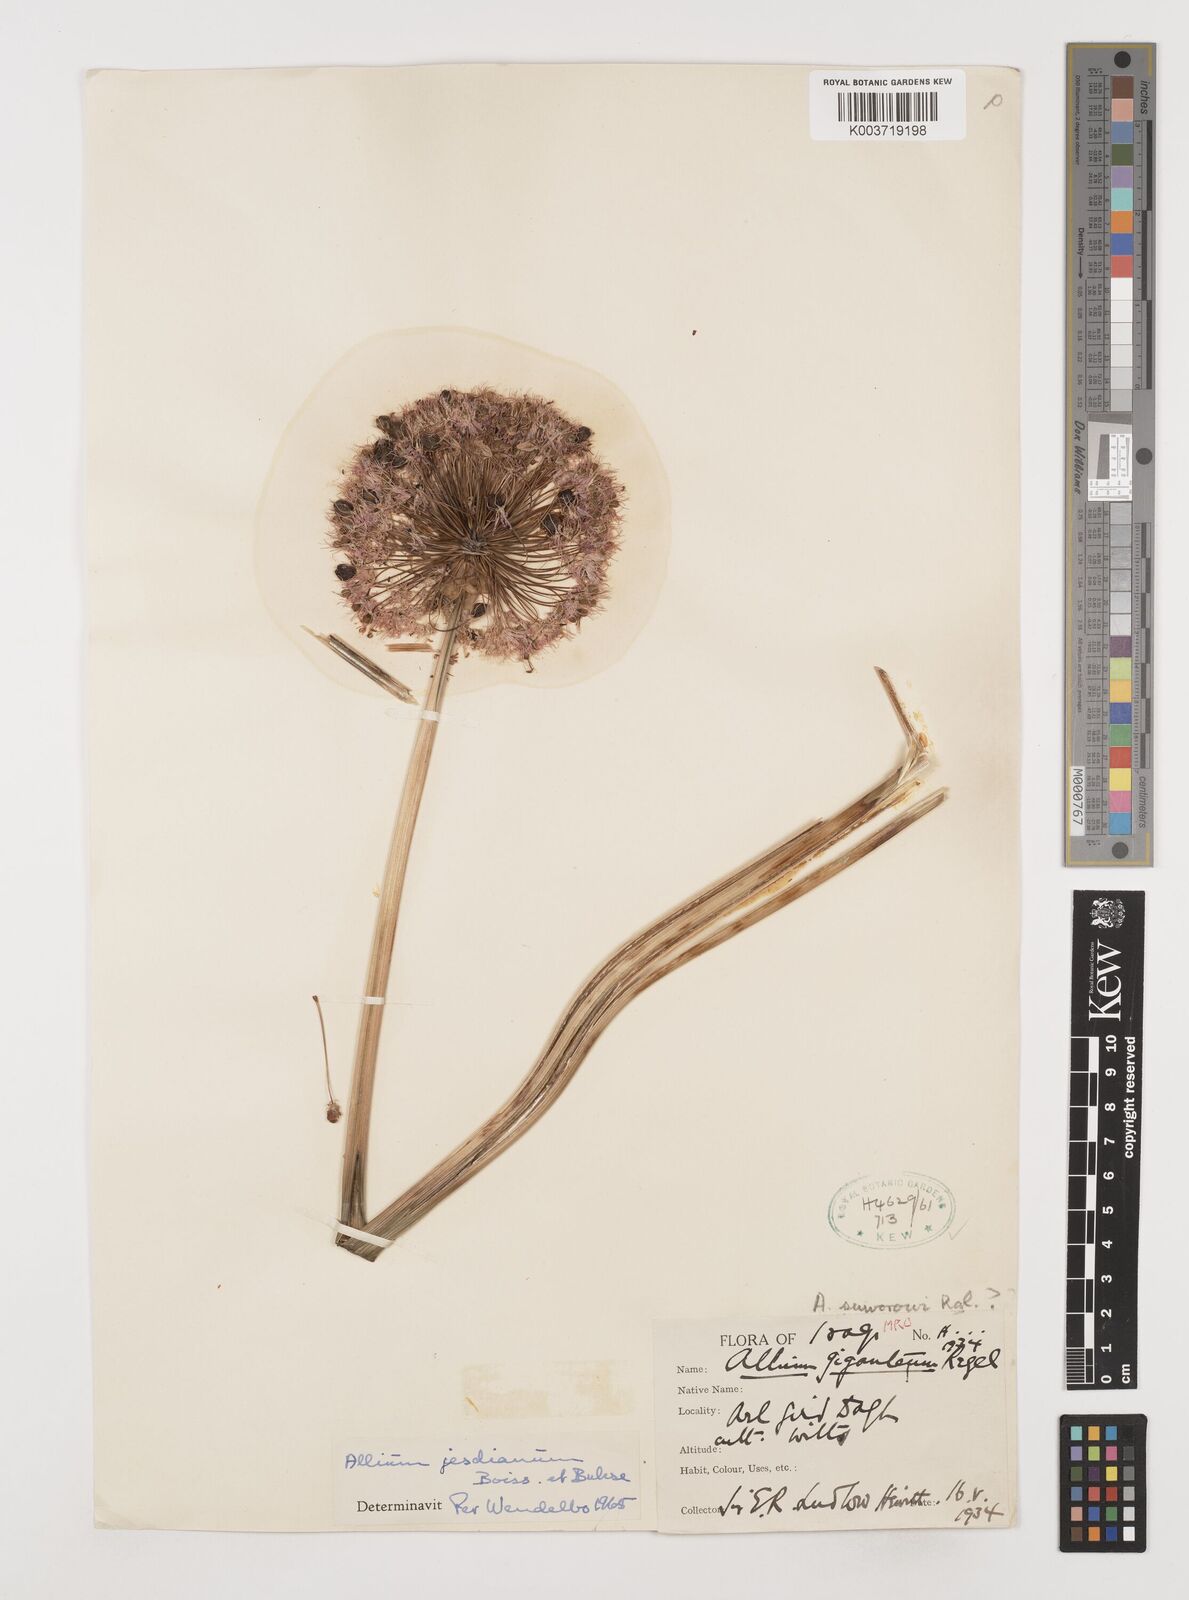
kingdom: Plantae
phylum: Tracheophyta
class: Liliopsida
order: Asparagales
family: Amaryllidaceae
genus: Allium
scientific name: Allium jesdianum
